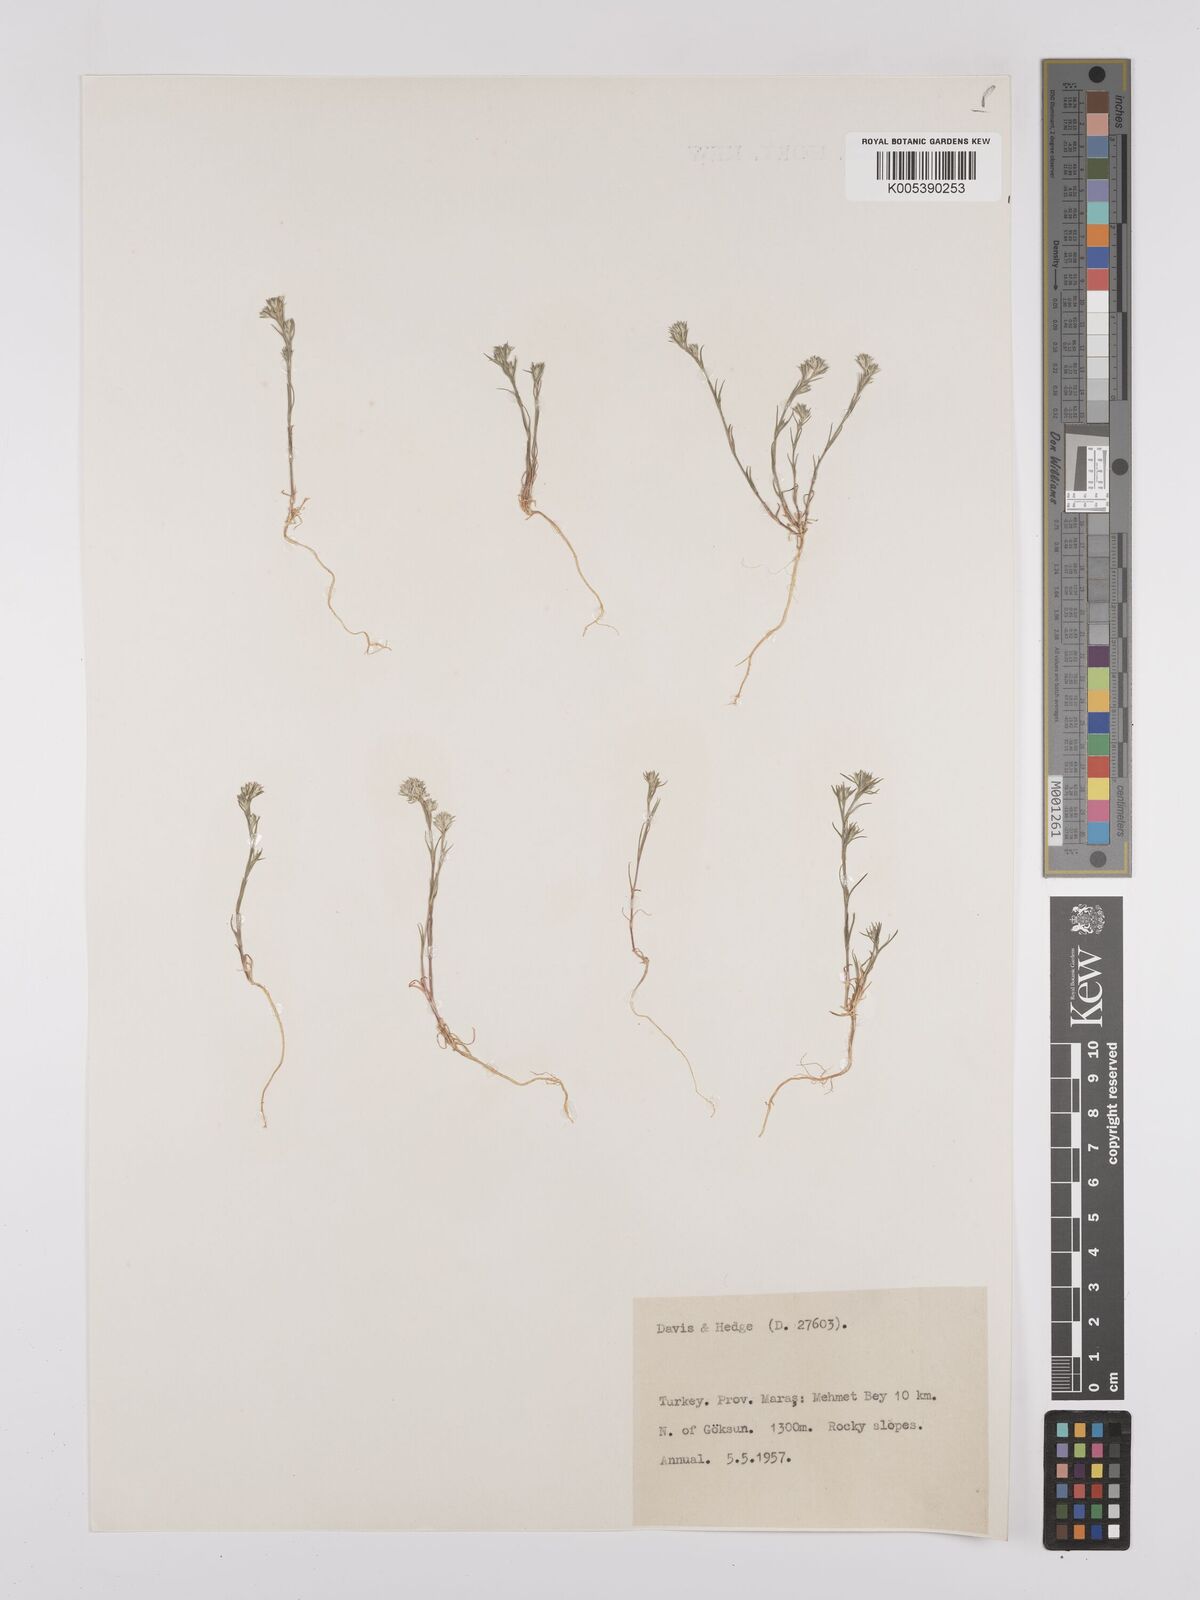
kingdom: Plantae
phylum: Tracheophyta
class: Magnoliopsida
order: Caryophyllales
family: Caryophyllaceae
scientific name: Caryophyllaceae
